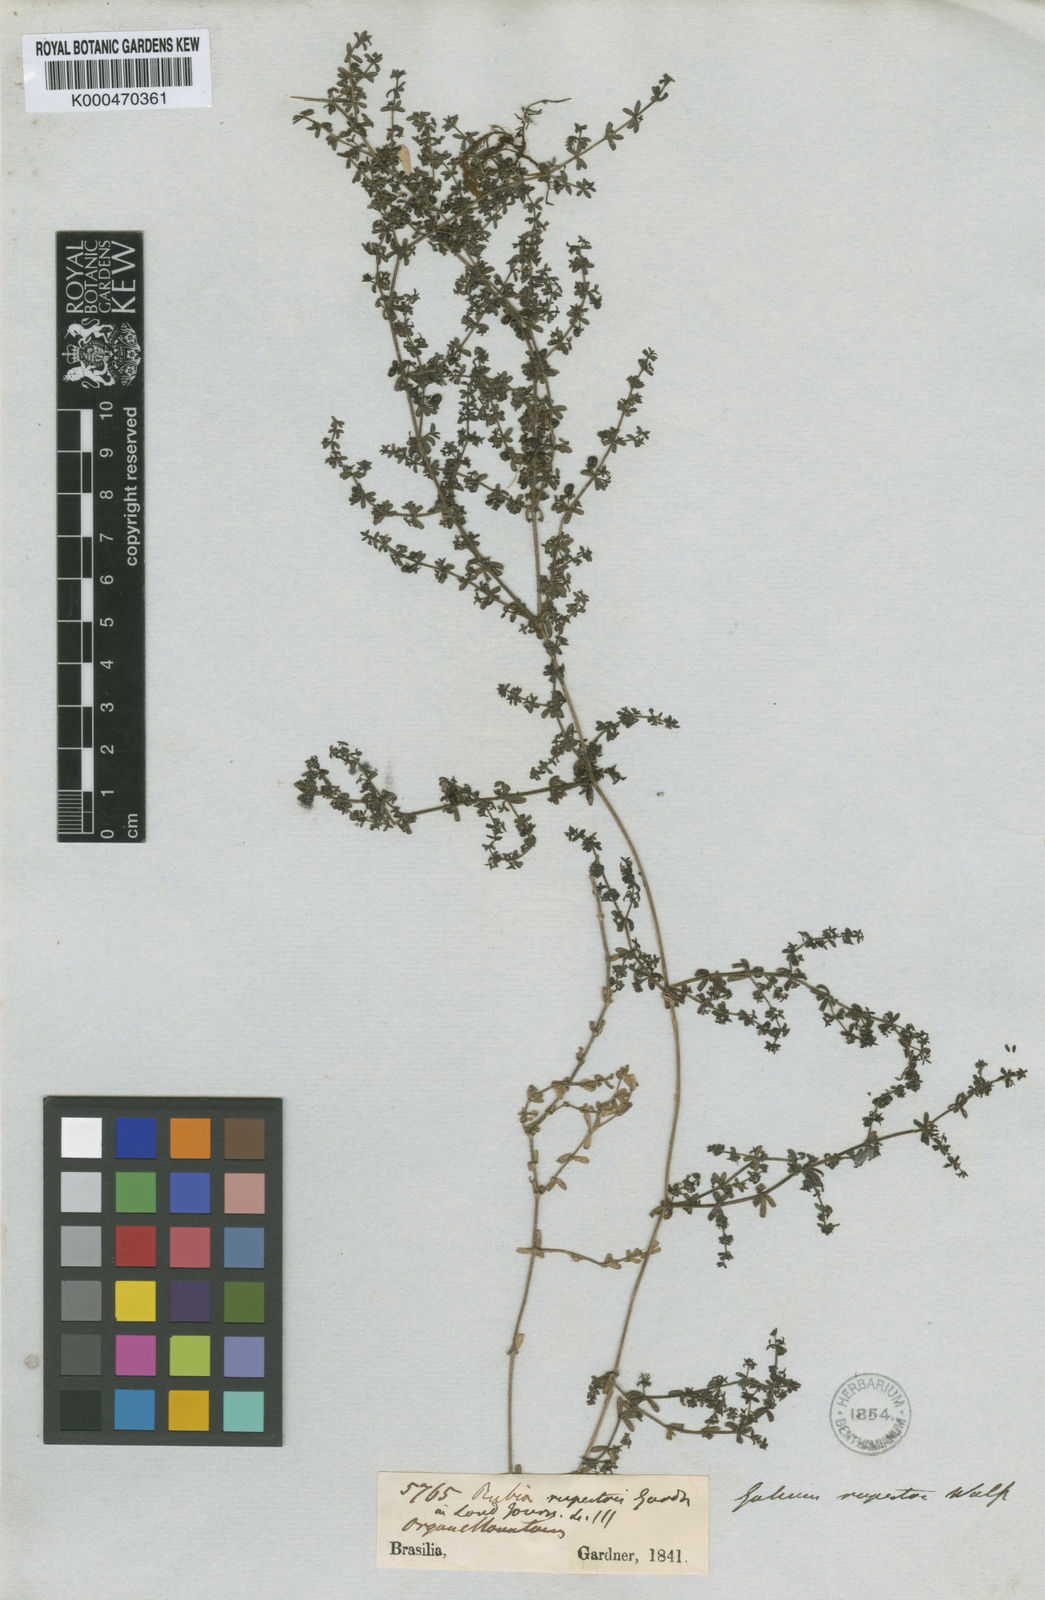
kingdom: Plantae
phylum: Tracheophyta
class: Magnoliopsida
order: Gentianales
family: Rubiaceae
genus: Galium
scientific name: Galium hypocarpium
